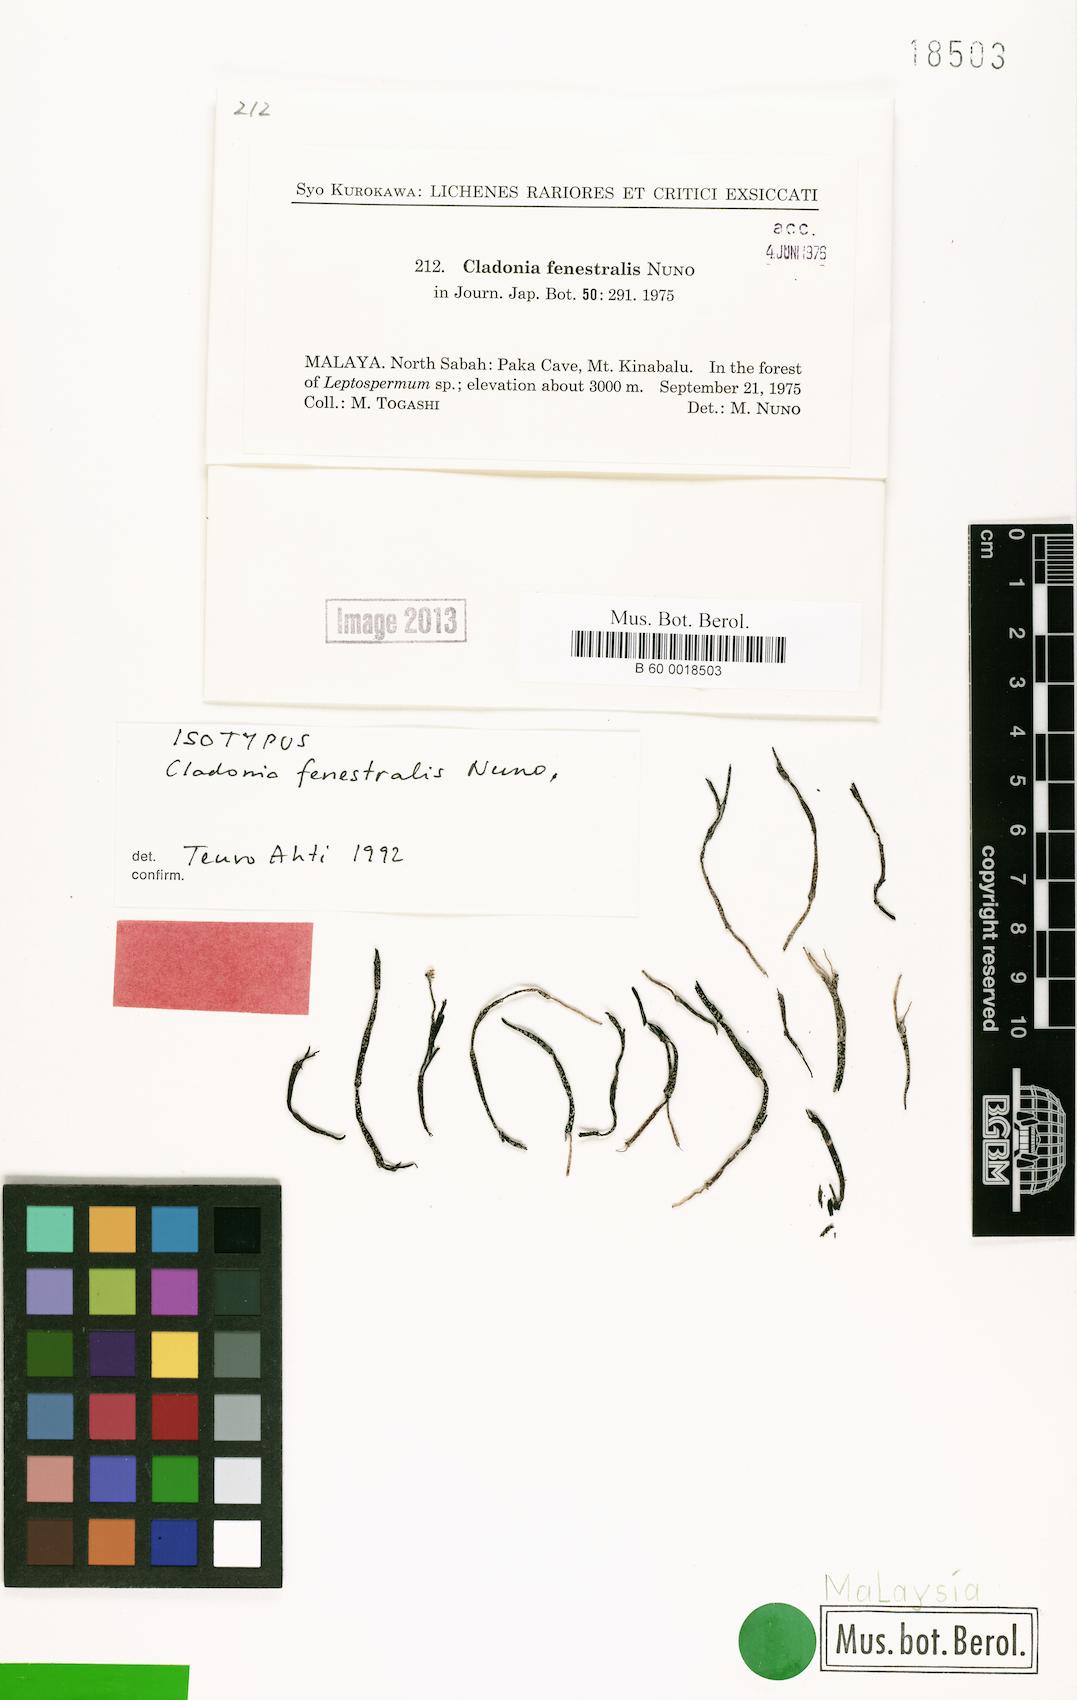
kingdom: Fungi
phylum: Ascomycota
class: Lecanoromycetes
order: Lecanorales
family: Cladoniaceae
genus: Cladonia
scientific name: Cladonia fenestralis
